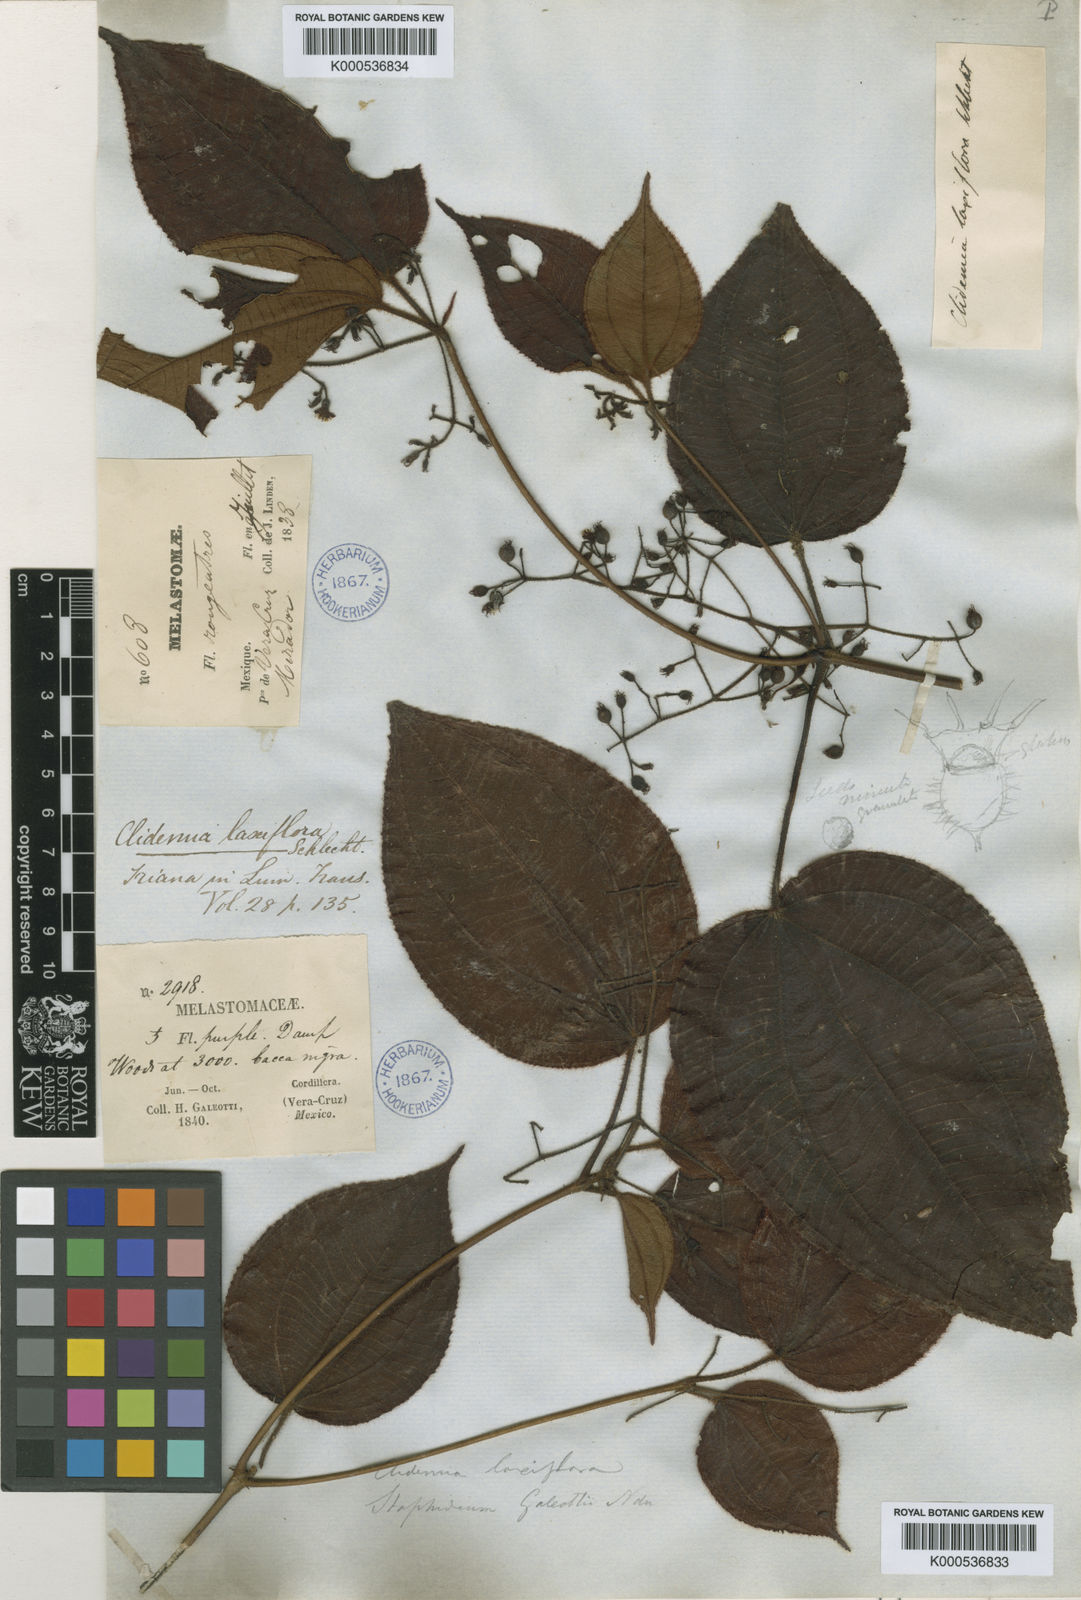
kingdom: Plantae
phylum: Tracheophyta
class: Magnoliopsida
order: Myrtales
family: Melastomataceae
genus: Miconia
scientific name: Miconia laxiflora
